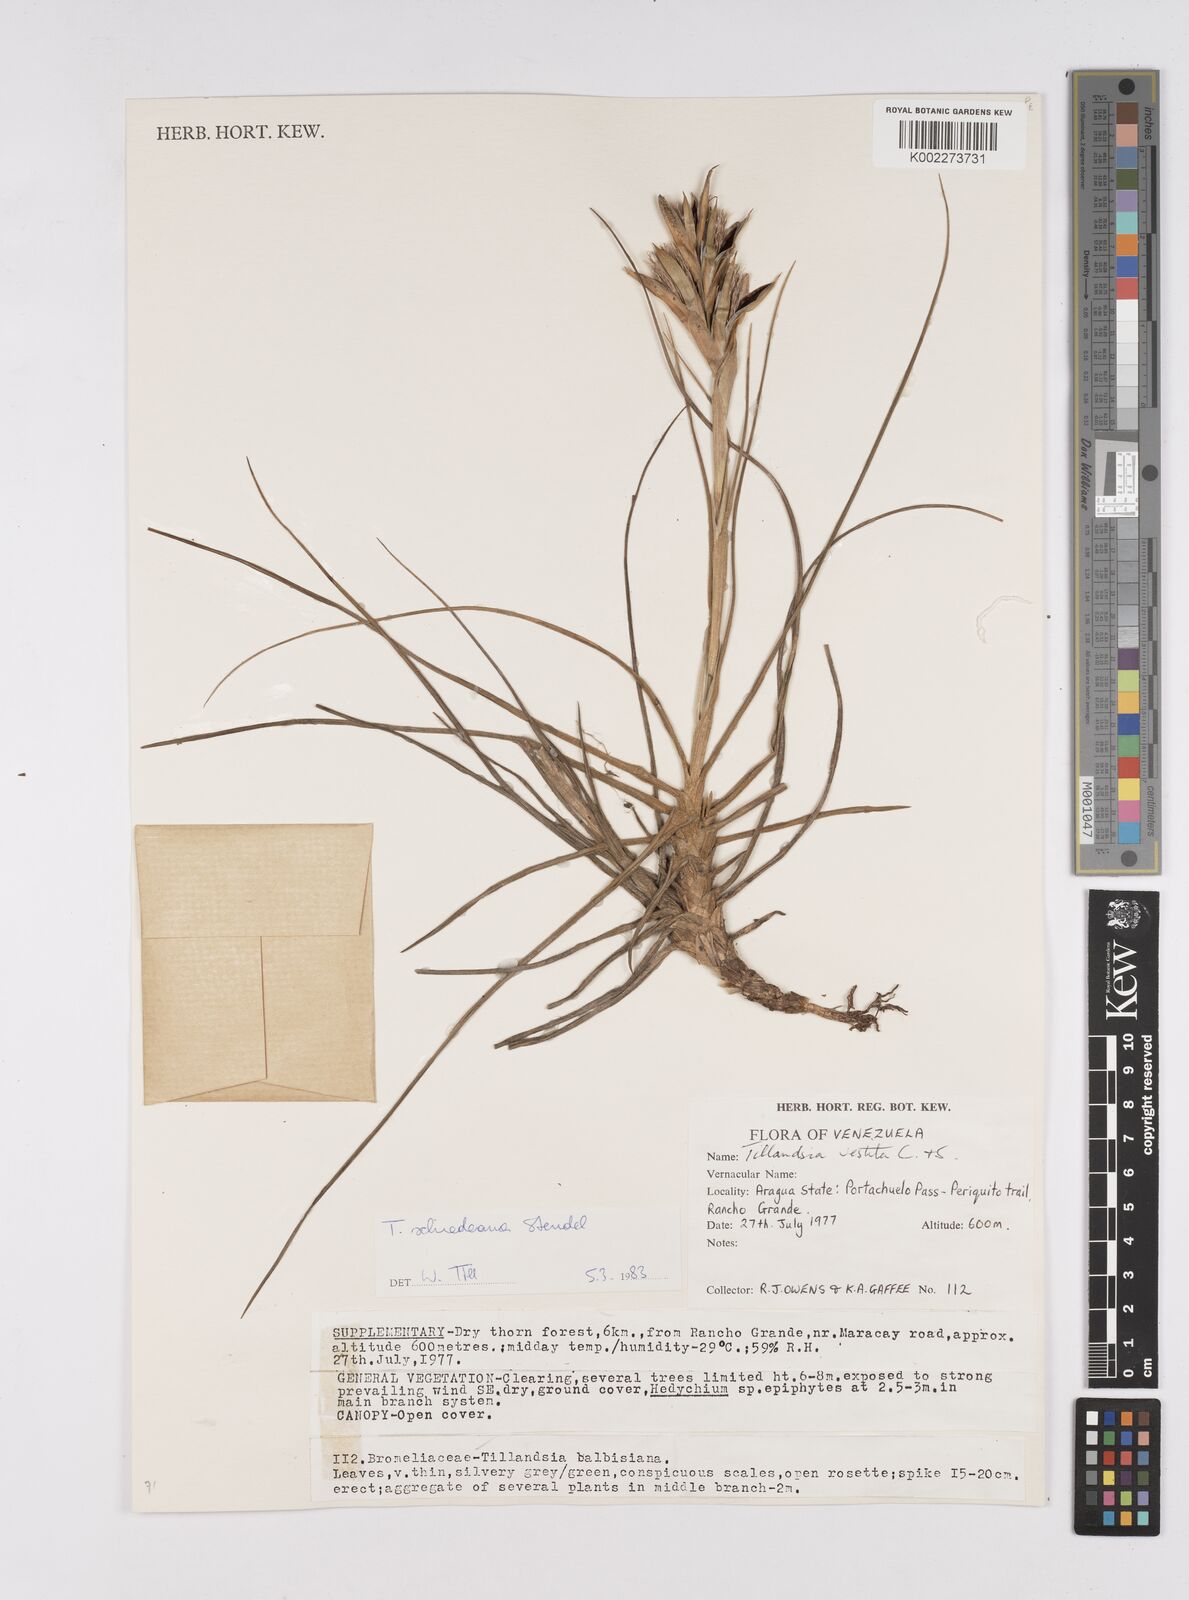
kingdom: Plantae
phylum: Tracheophyta
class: Liliopsida
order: Poales
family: Bromeliaceae
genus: Tillandsia
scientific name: Tillandsia schiedeana
